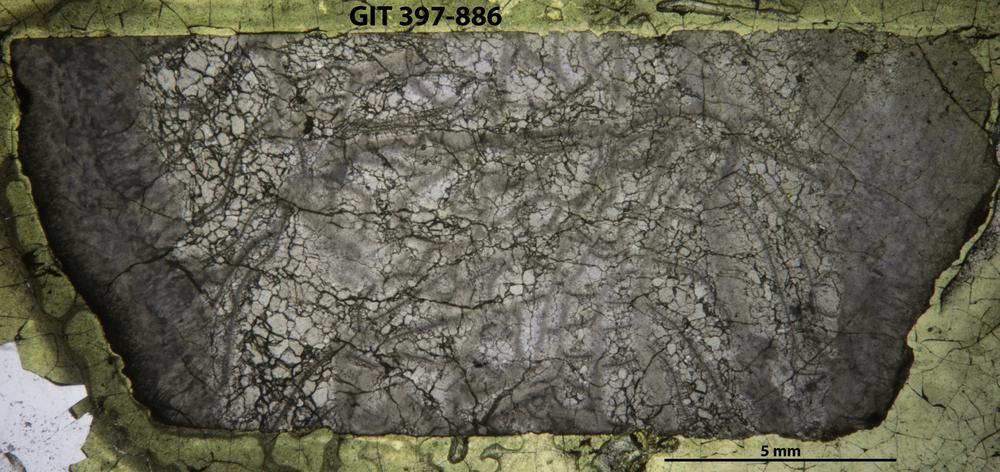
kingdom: Animalia
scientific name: Animalia
